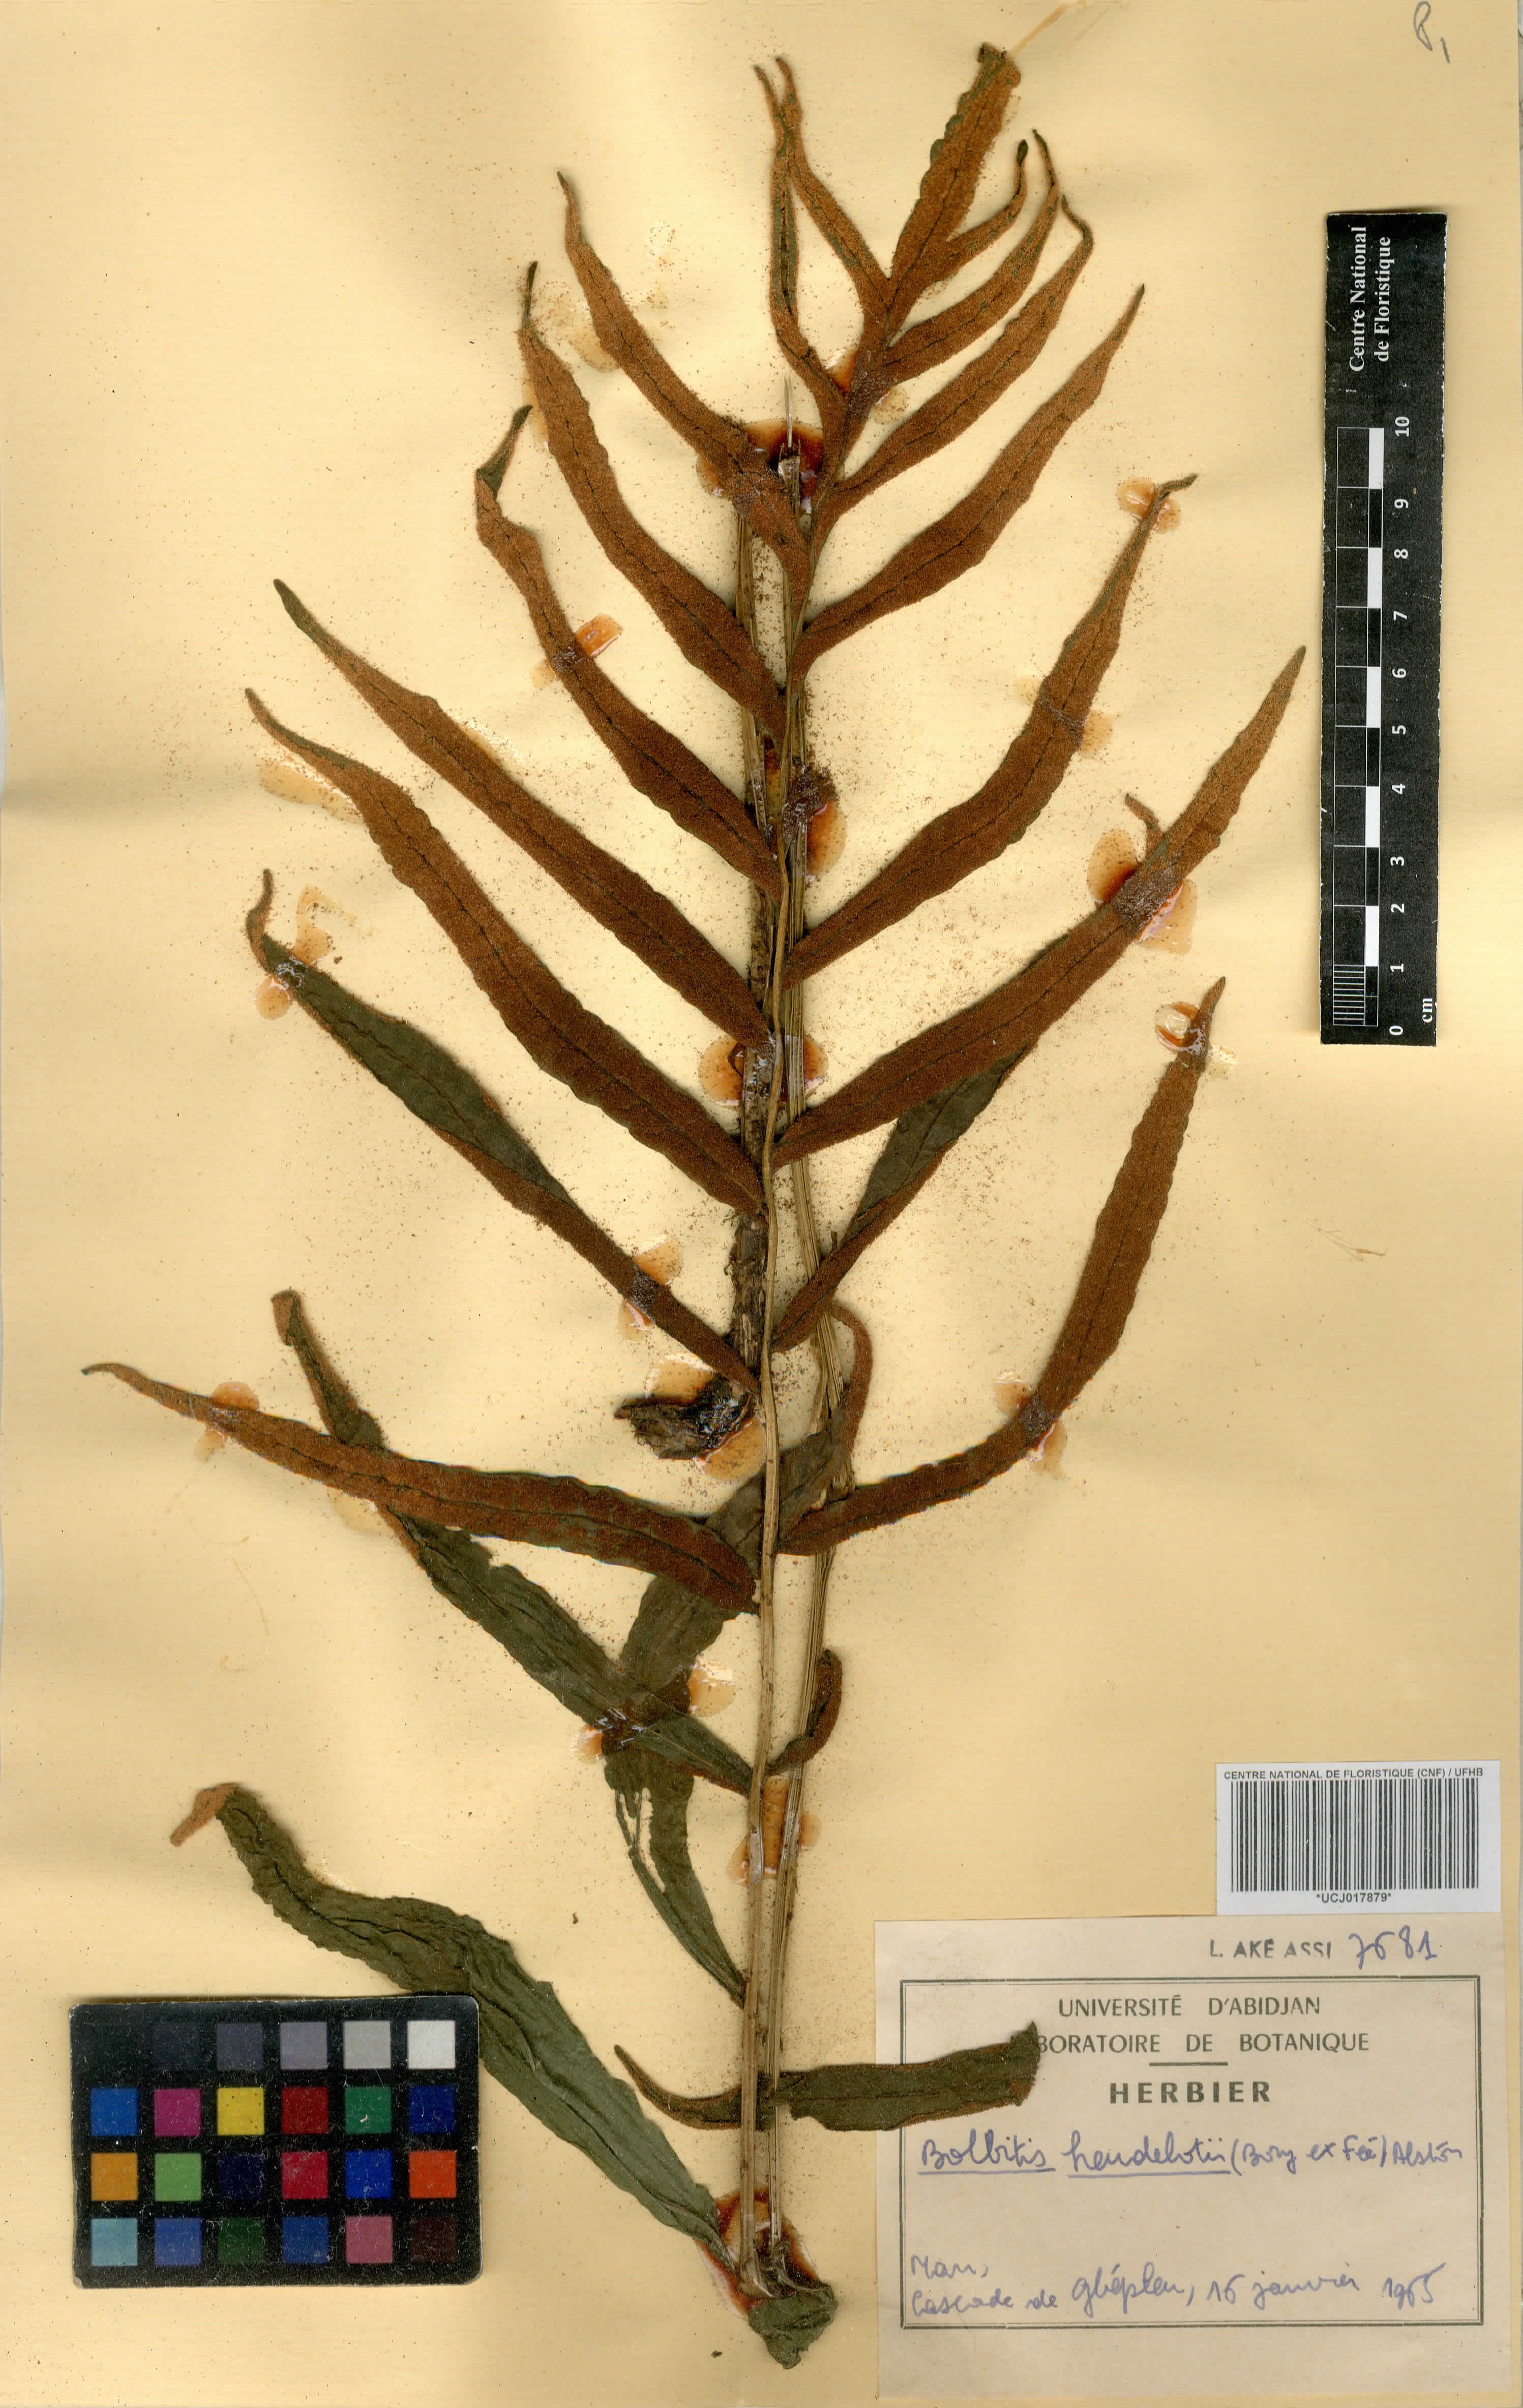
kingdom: Plantae
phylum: Tracheophyta
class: Polypodiopsida
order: Polypodiales
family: Dryopteridaceae
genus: Bolbitis
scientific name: Bolbitis heudelotii
